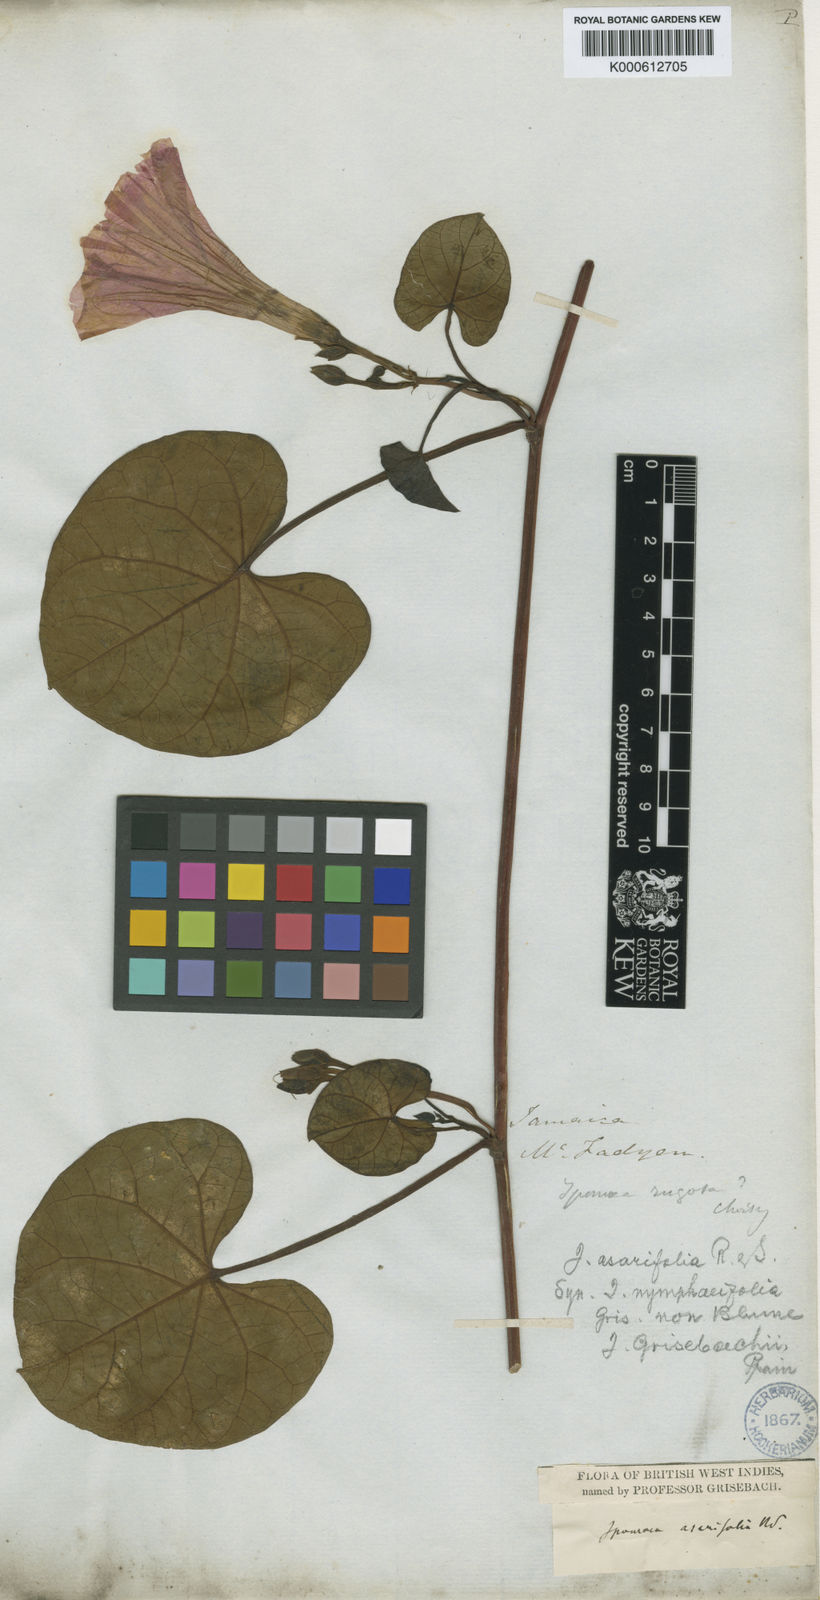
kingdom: Plantae
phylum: Tracheophyta
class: Magnoliopsida
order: Solanales
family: Convolvulaceae
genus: Ipomoea
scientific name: Ipomoea asarifolia
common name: Ginger-leaf morning-glory
